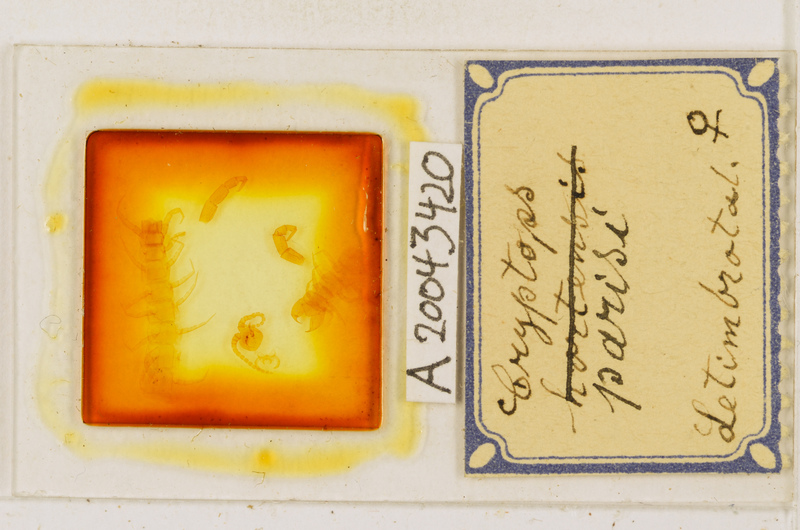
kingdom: Animalia
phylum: Arthropoda
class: Chilopoda
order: Scolopendromorpha
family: Cryptopidae
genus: Cryptops
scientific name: Cryptops parisi
